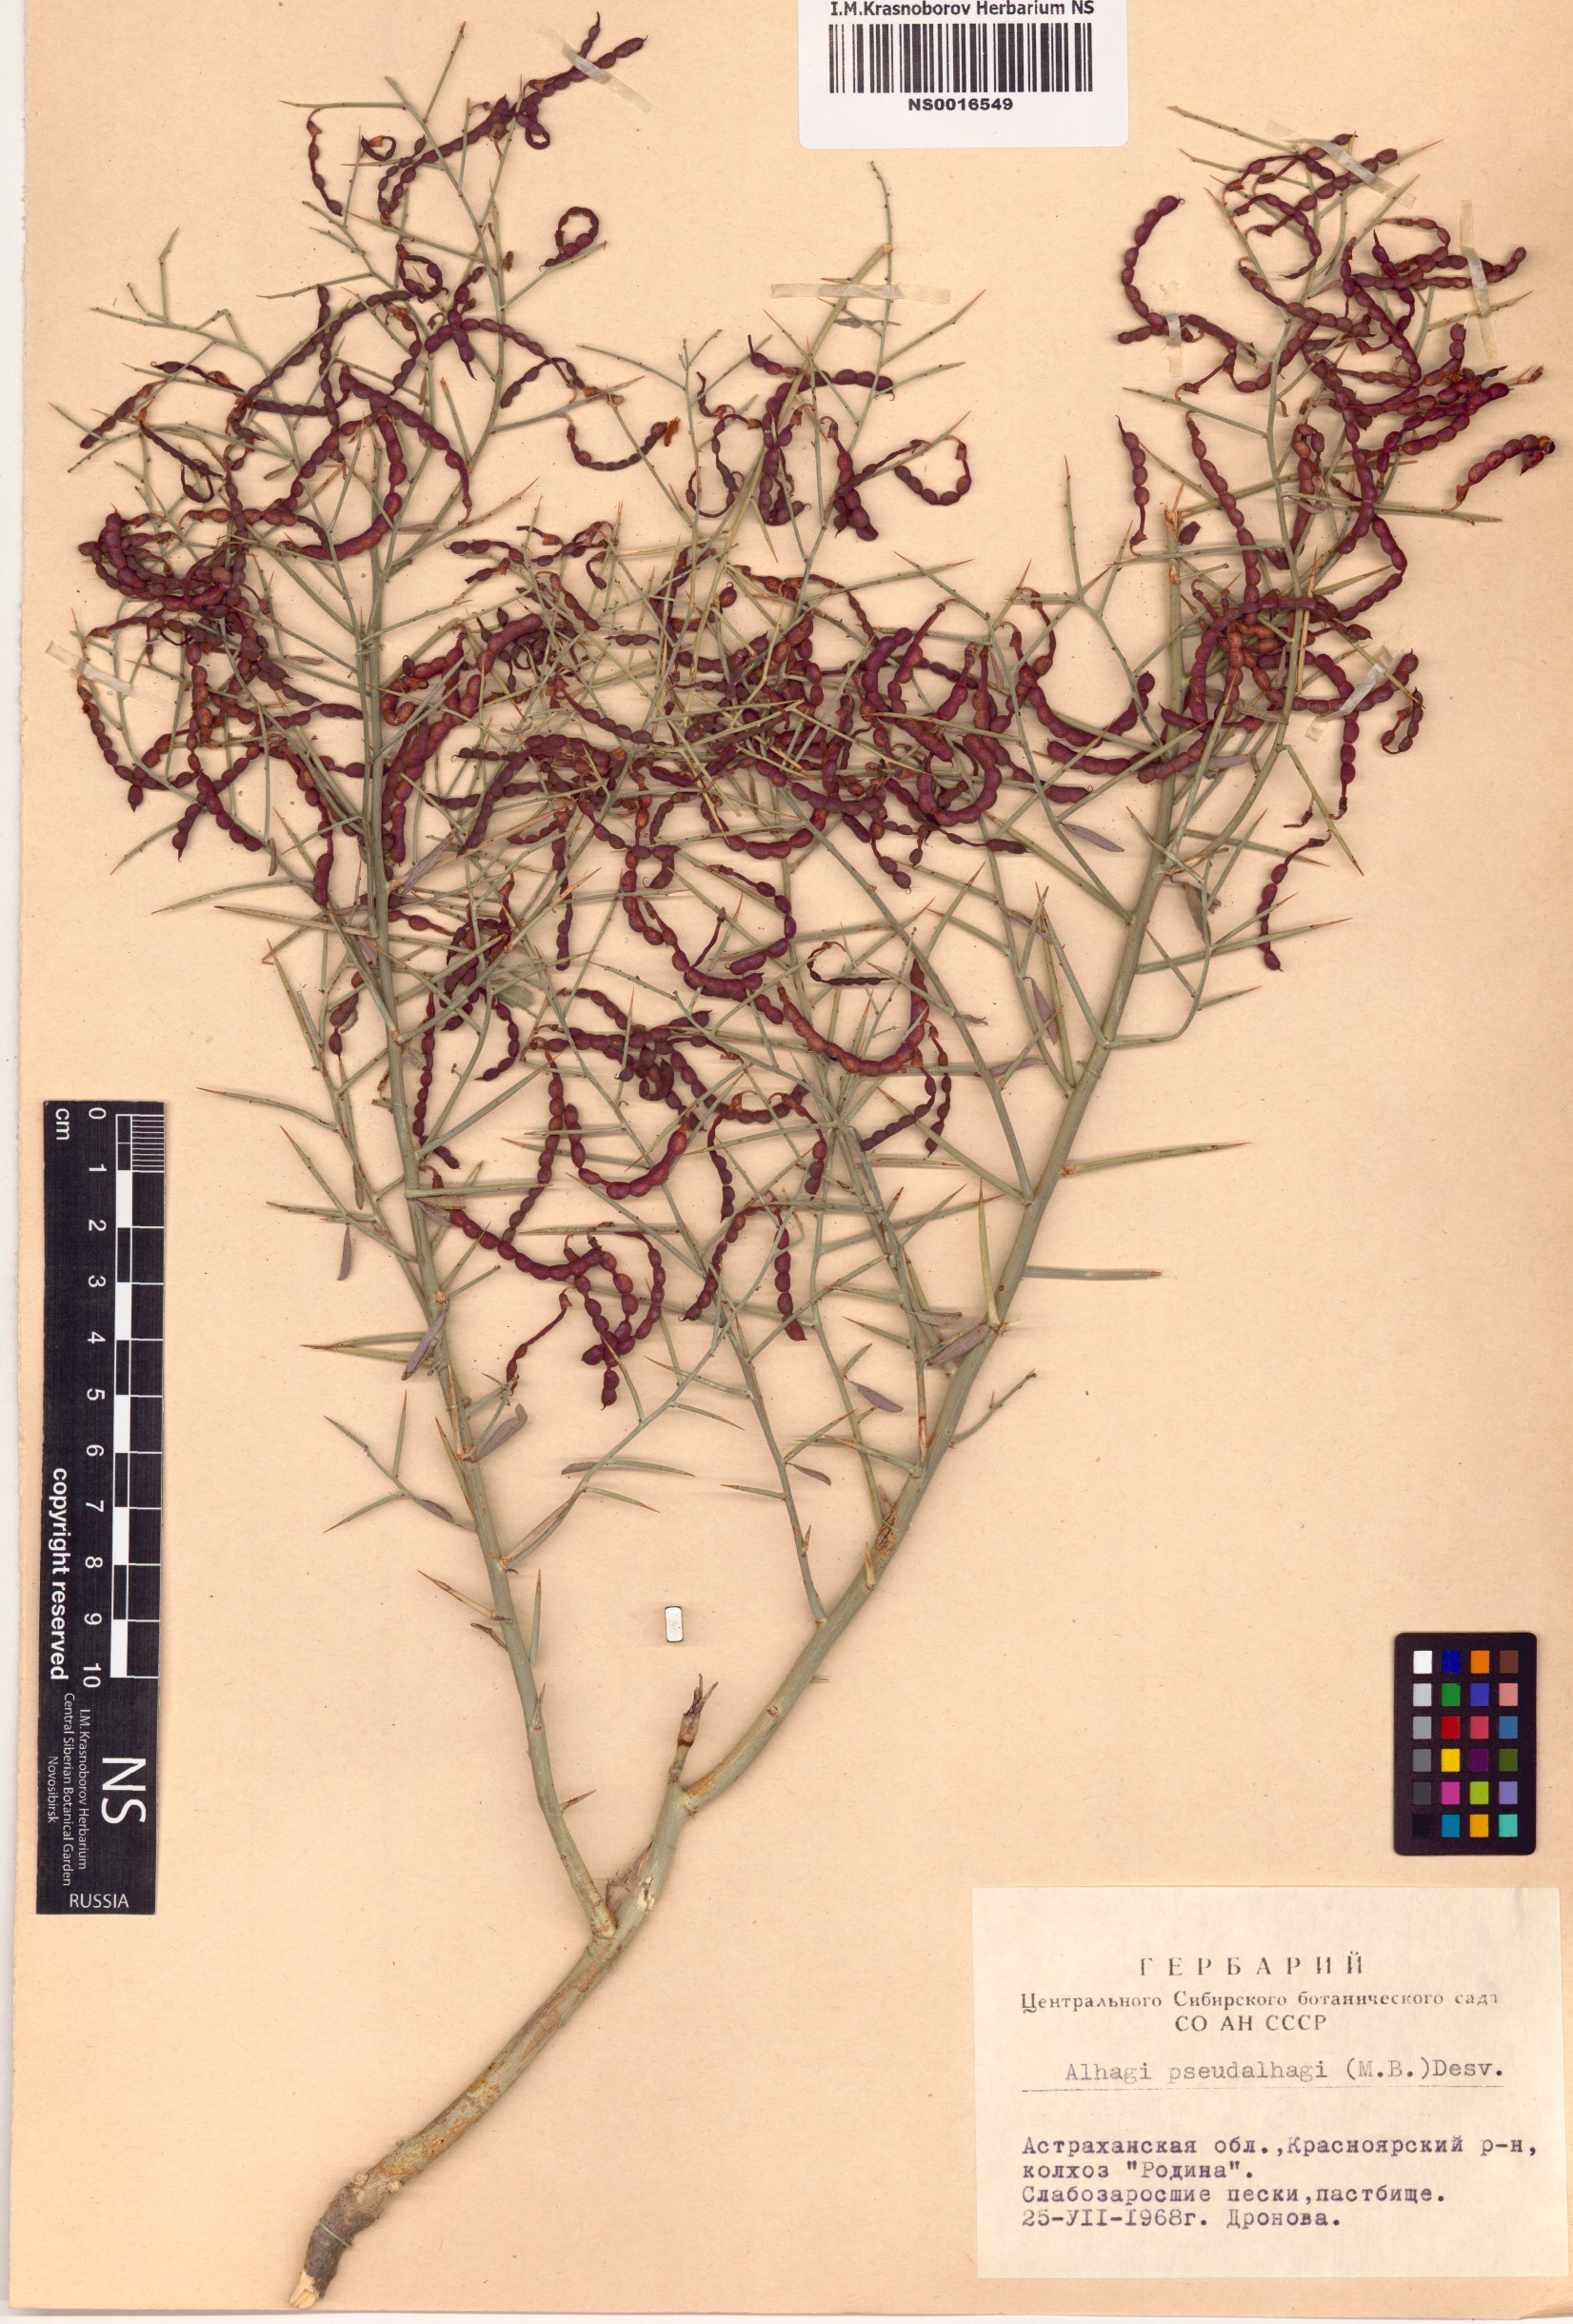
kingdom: Plantae
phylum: Tracheophyta
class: Magnoliopsida
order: Fabales
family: Fabaceae
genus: Alhagi
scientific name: Alhagi pseudalhagi
